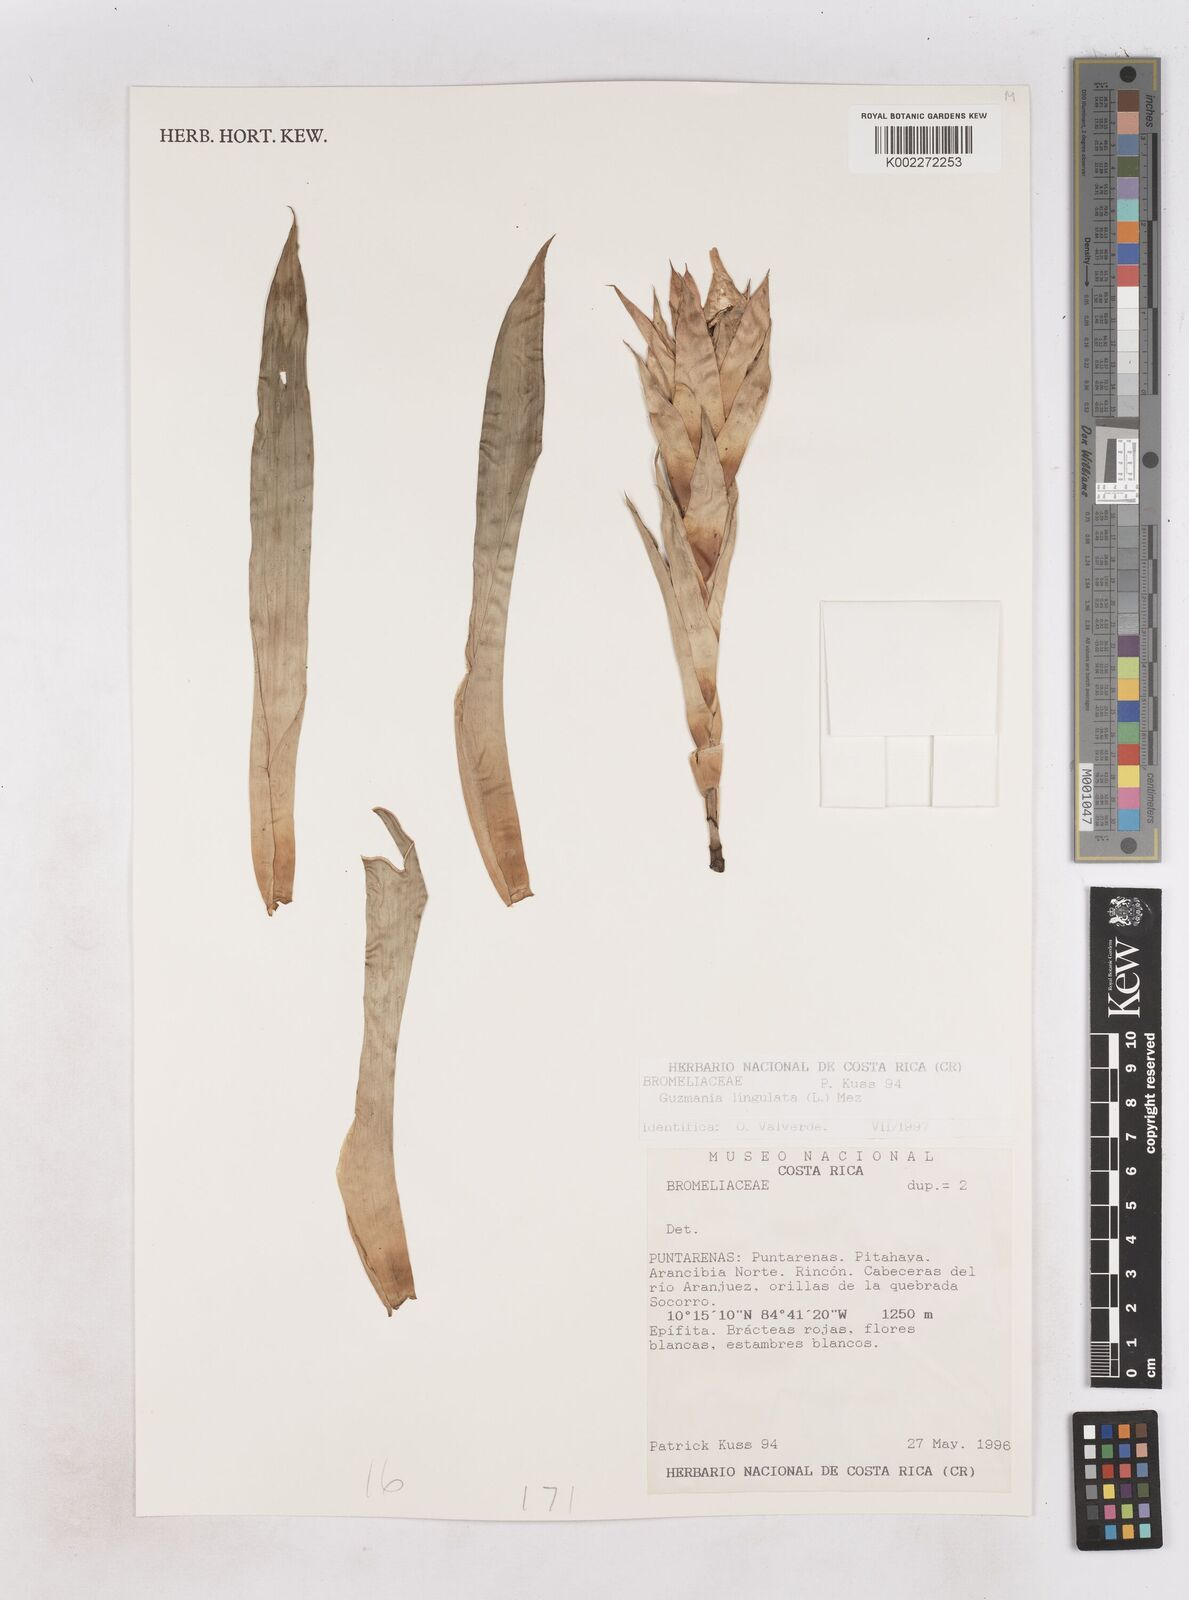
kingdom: Plantae
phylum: Tracheophyta
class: Liliopsida
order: Poales
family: Bromeliaceae
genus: Guzmania
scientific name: Guzmania lingulata
